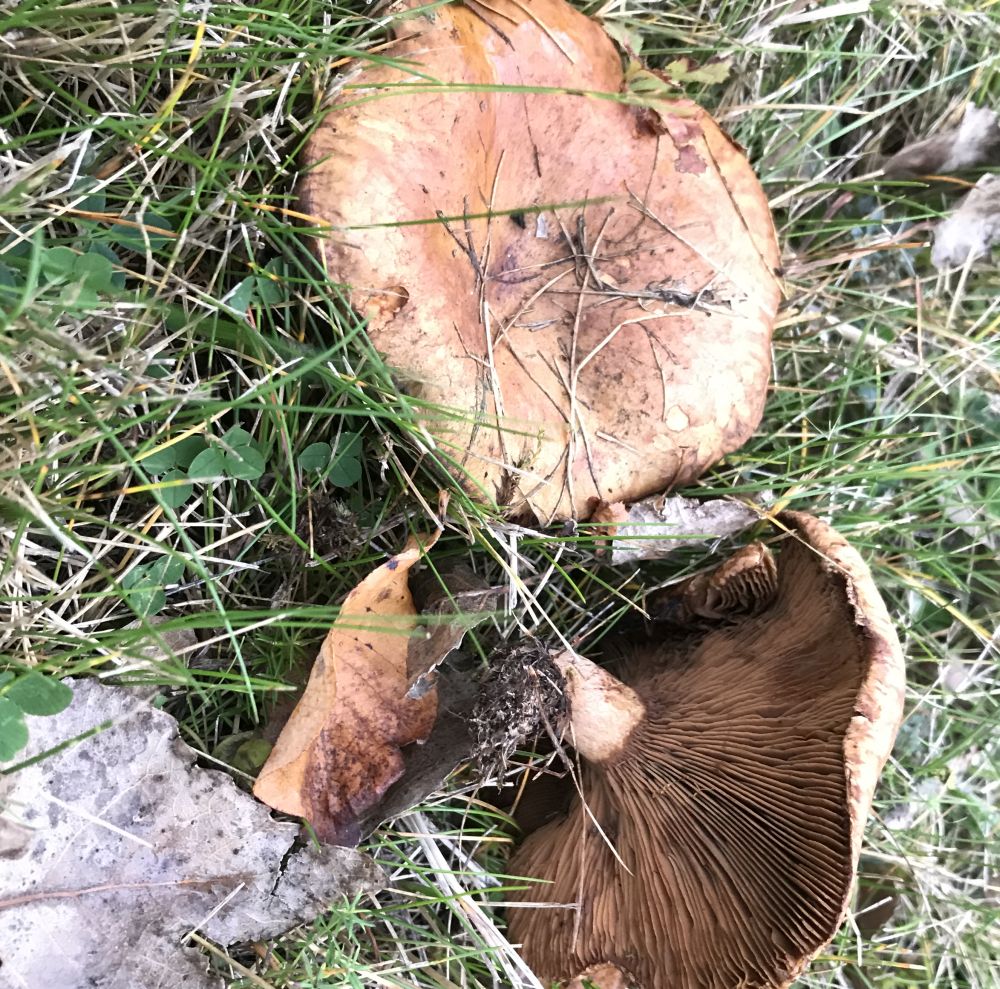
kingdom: Fungi
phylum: Basidiomycota
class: Agaricomycetes
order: Boletales
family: Paxillaceae
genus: Paxillus
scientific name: Paxillus
